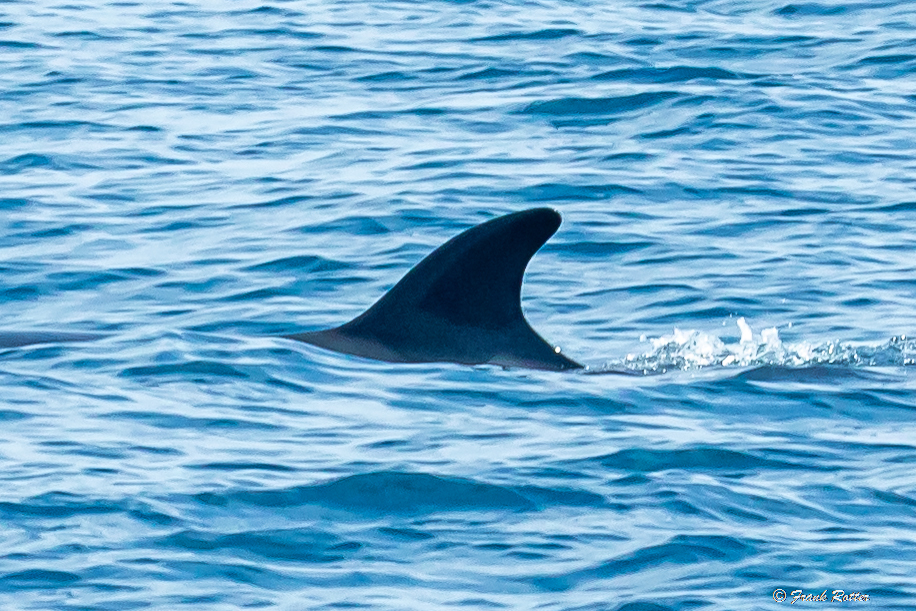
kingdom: Animalia
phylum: Chordata
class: Mammalia
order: Cetacea
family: Balaenopteridae
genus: Balaenoptera
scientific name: Balaenoptera edeni
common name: Bryde's whale
